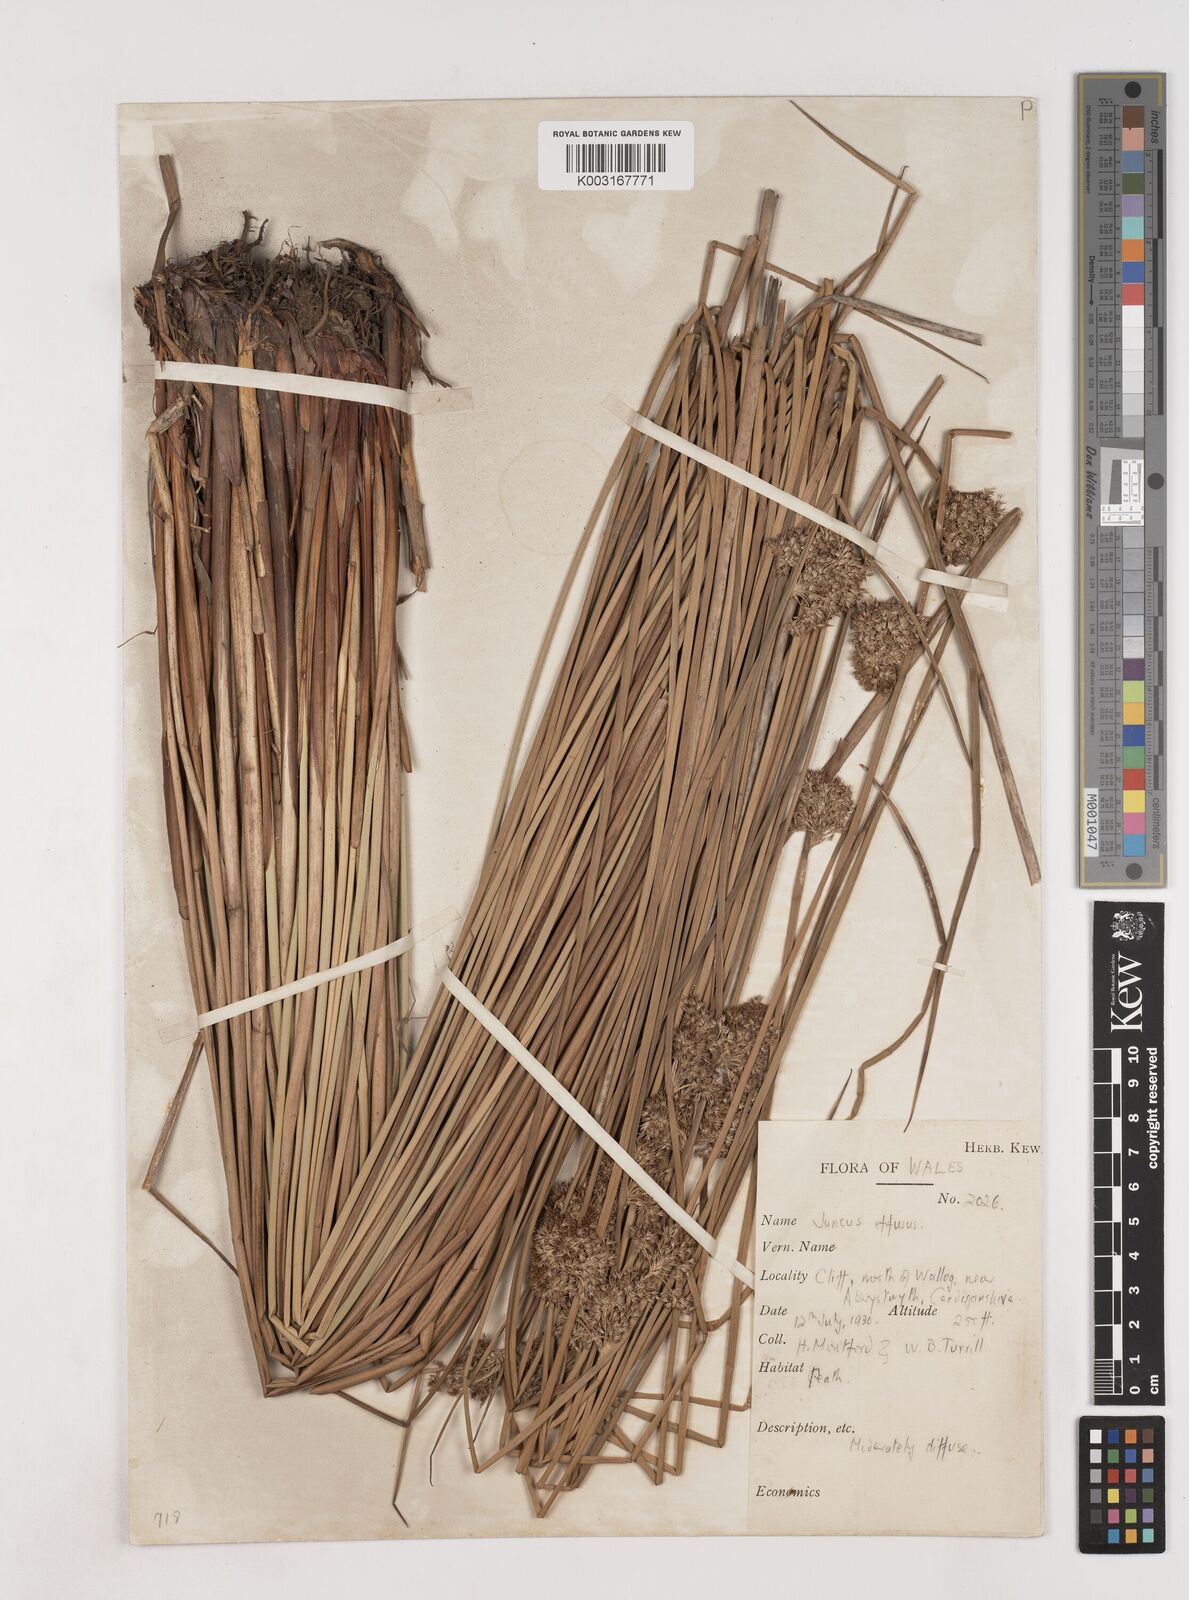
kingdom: Plantae
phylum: Tracheophyta
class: Liliopsida
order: Poales
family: Juncaceae
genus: Juncus
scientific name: Juncus effusus
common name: Soft rush
